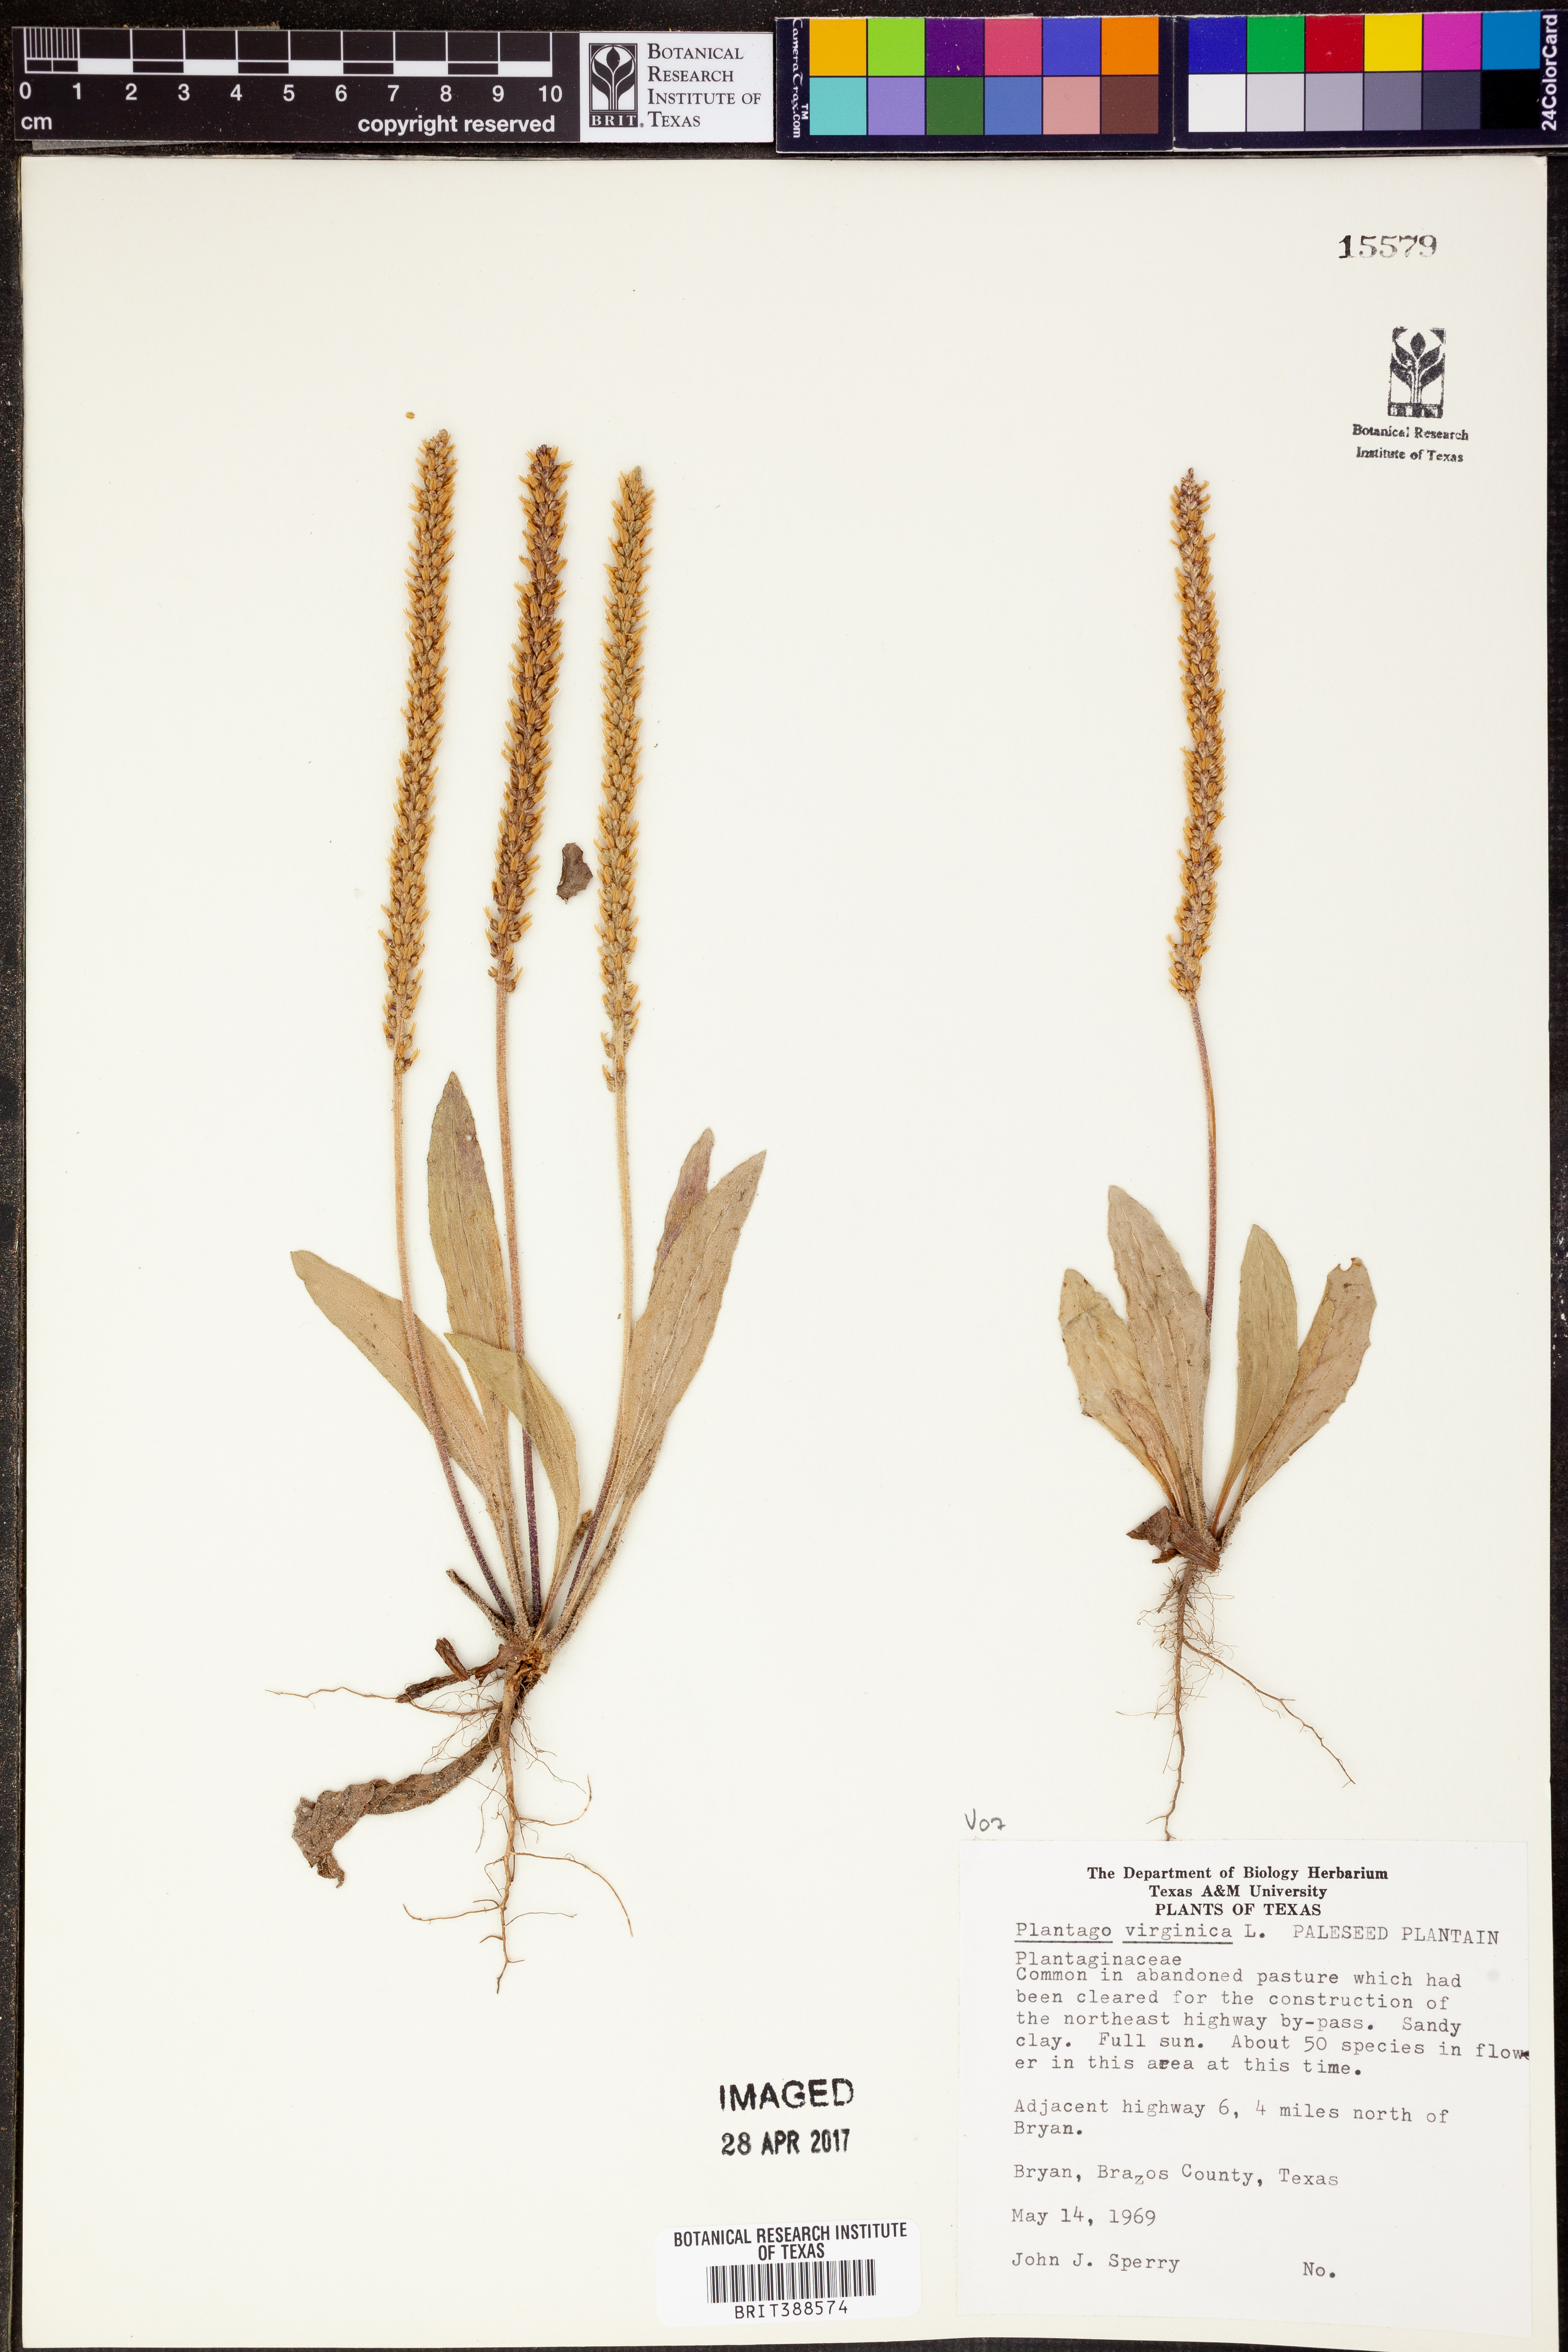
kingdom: Plantae
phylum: Tracheophyta
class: Magnoliopsida
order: Lamiales
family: Plantaginaceae
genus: Plantago
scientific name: Plantago virginica
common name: Hoary plantain
